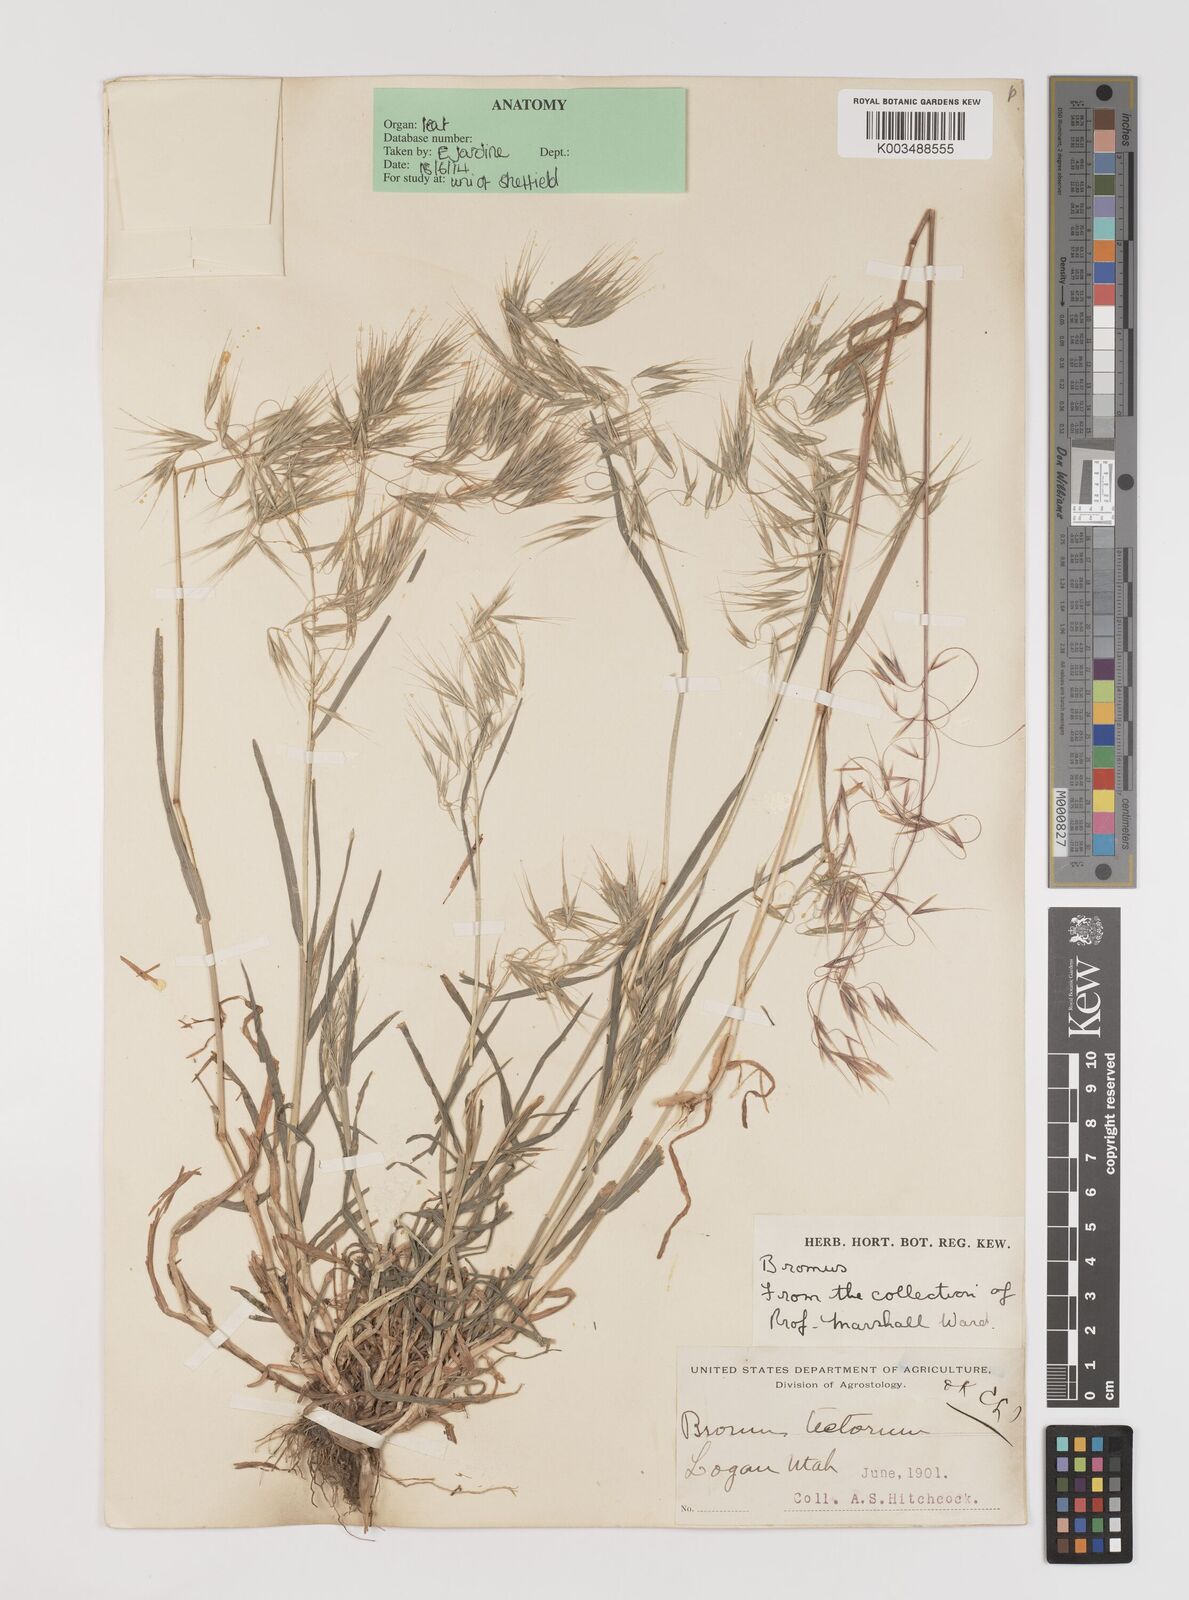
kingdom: Plantae
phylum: Tracheophyta
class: Liliopsida
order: Poales
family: Poaceae
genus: Bromus
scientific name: Bromus tectorum
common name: Cheatgrass
